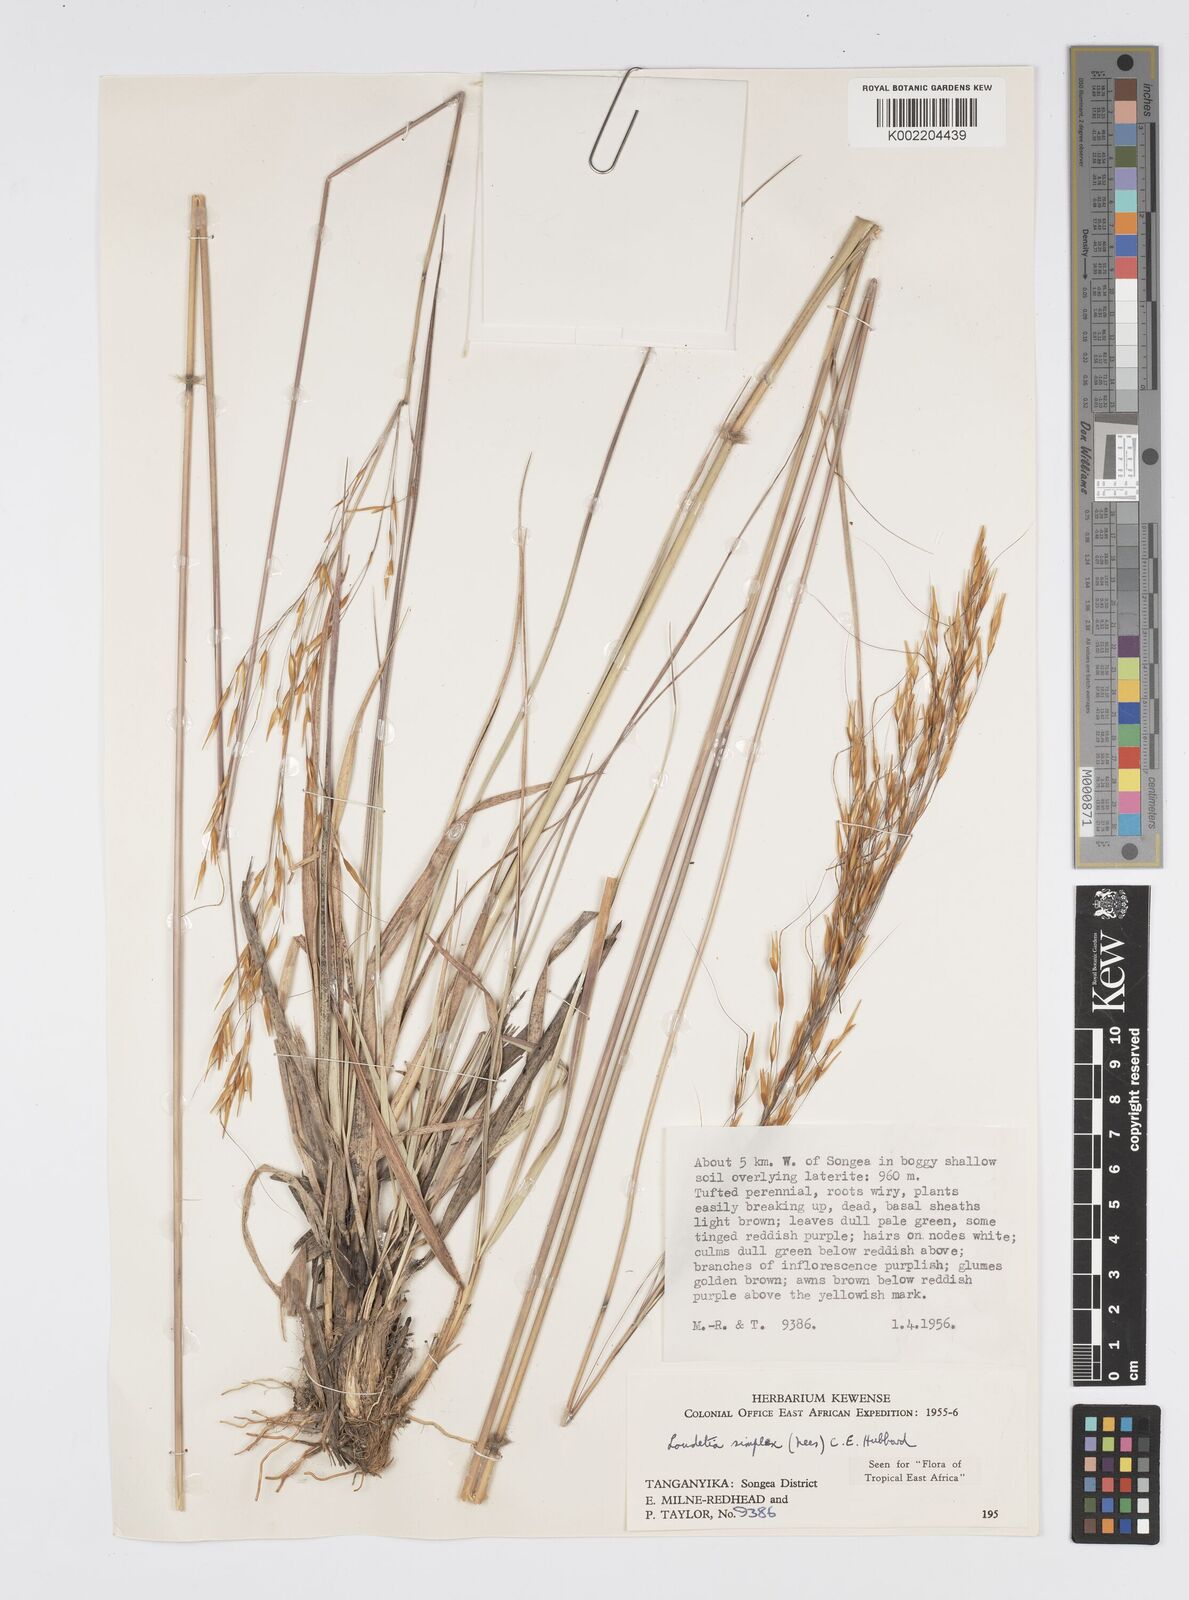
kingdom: Plantae
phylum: Tracheophyta
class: Liliopsida
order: Poales
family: Poaceae
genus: Loudetia
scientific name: Loudetia simplex
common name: Common russet grass
